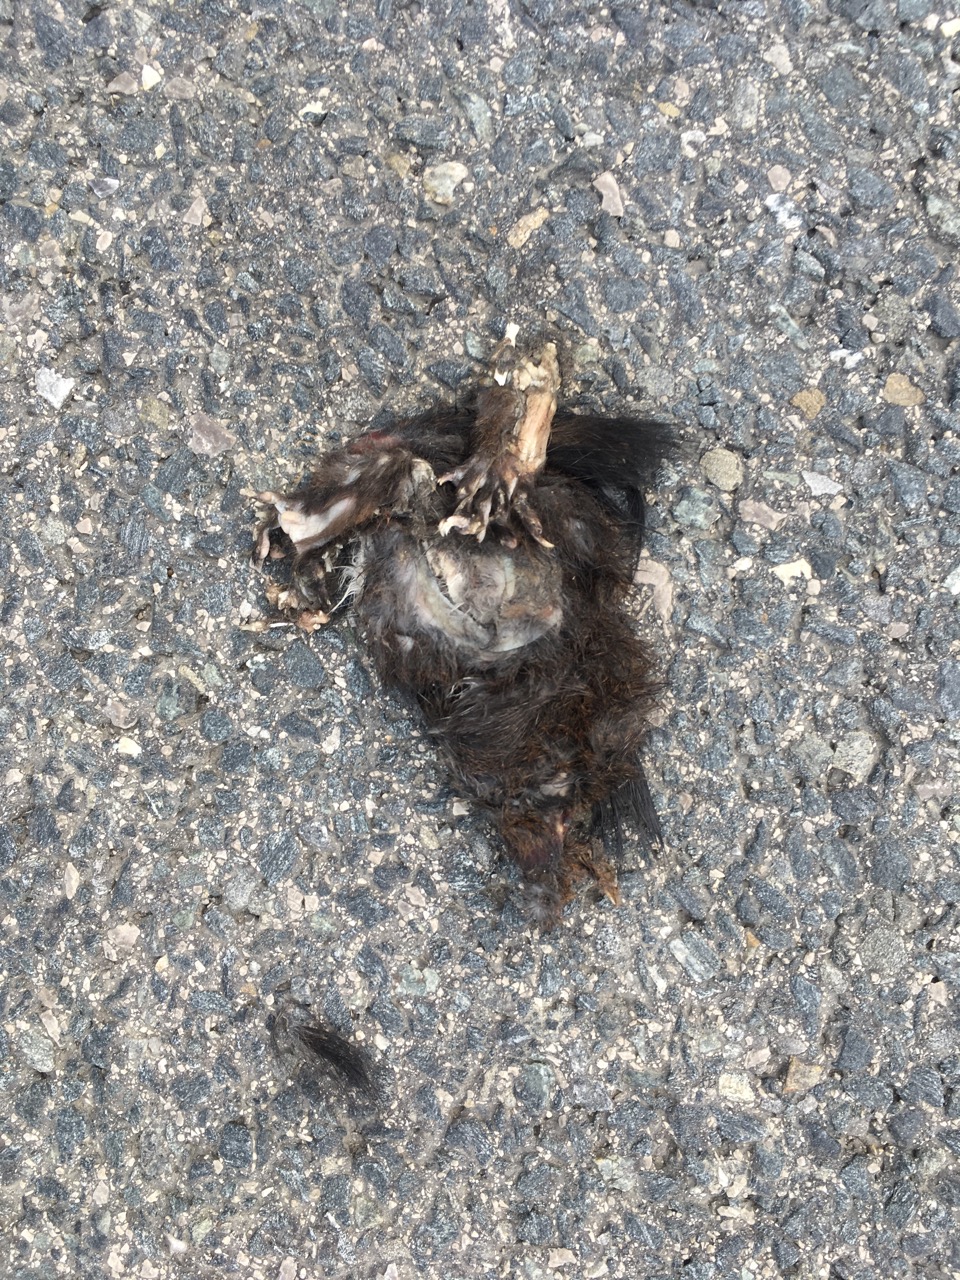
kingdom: Animalia
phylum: Chordata
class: Mammalia
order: Rodentia
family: Sciuridae
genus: Sciurus
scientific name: Sciurus vulgaris
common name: Eurasian red squirrel
